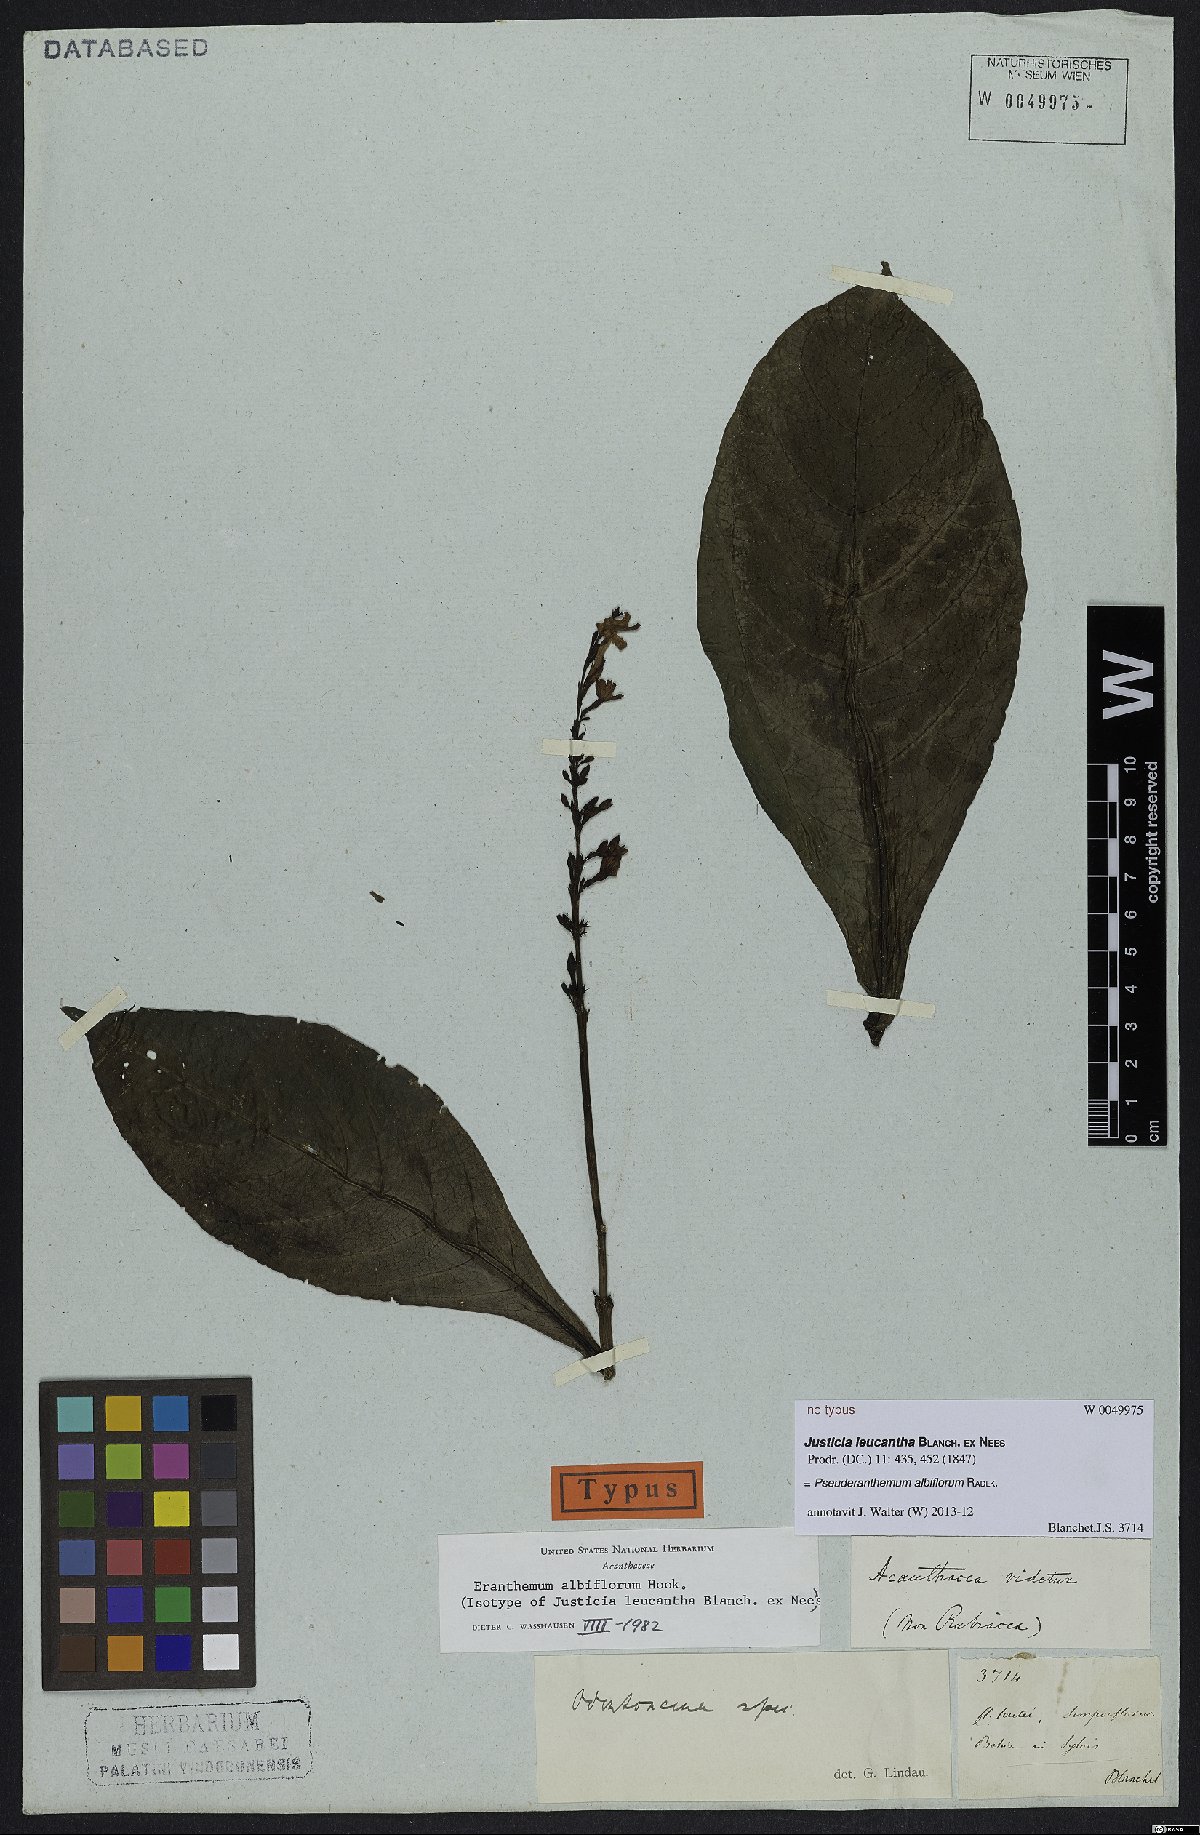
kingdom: Plantae
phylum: Tracheophyta
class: Magnoliopsida
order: Lamiales
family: Acanthaceae
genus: Pseuderanthemum
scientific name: Pseuderanthemum albiflorum
